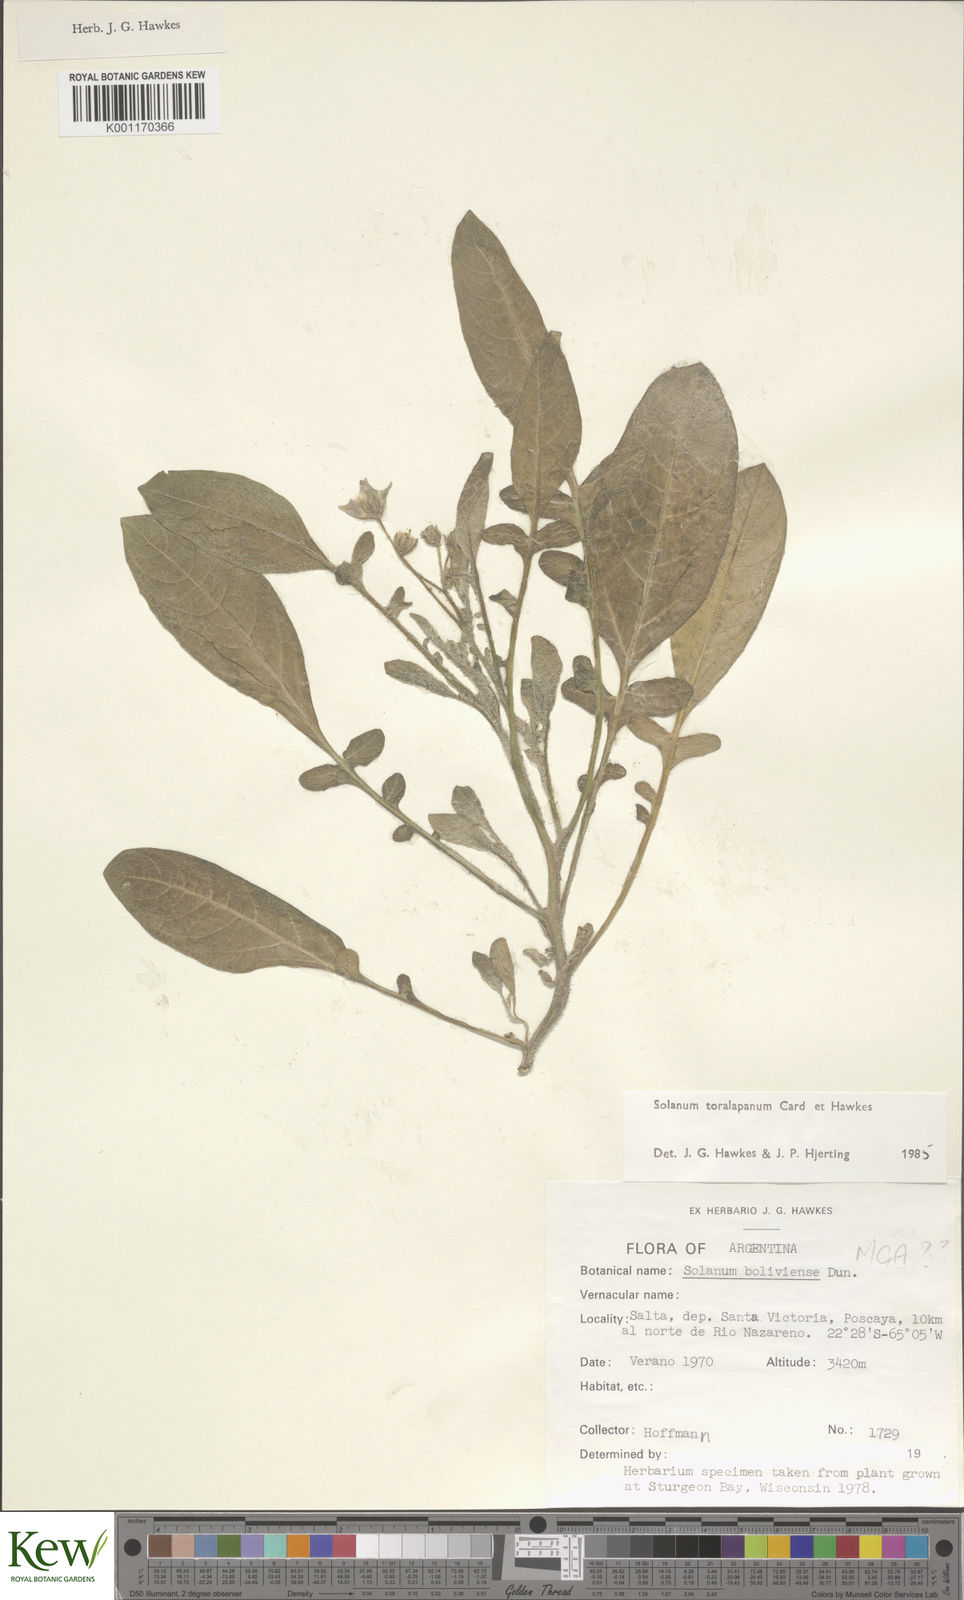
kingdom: Plantae
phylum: Tracheophyta
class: Magnoliopsida
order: Solanales
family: Solanaceae
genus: Solanum
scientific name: Solanum
